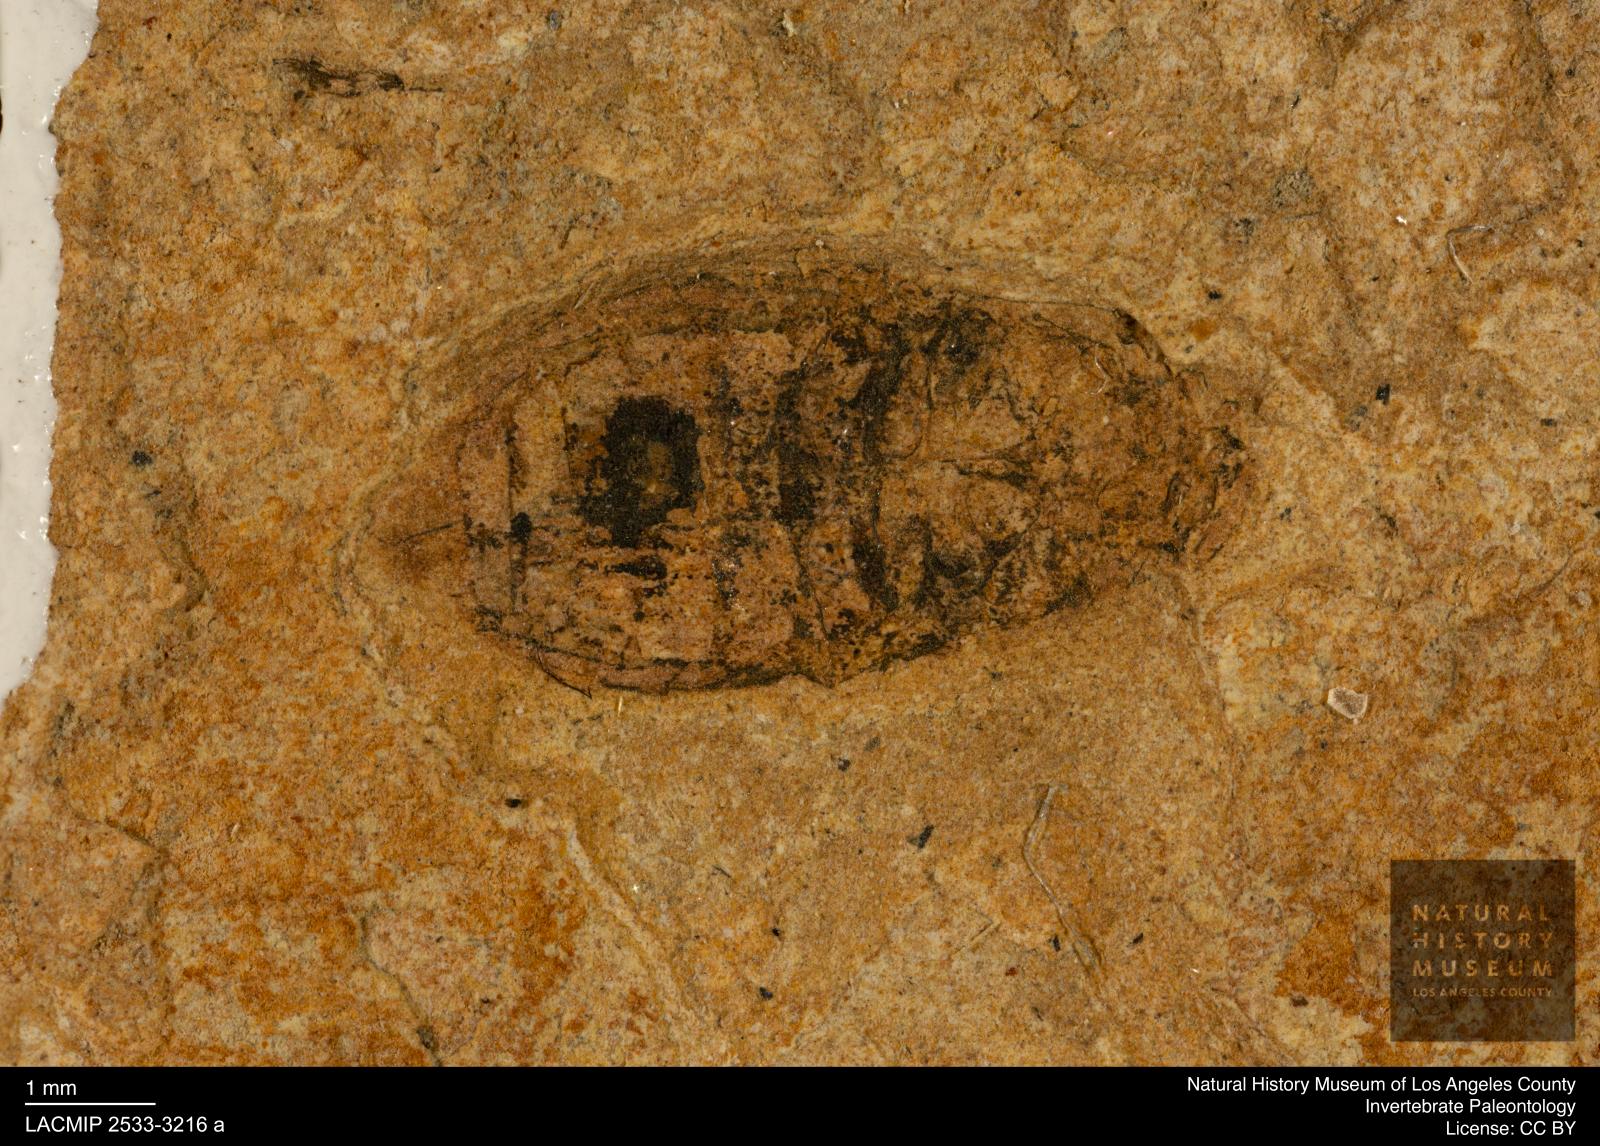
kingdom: Animalia
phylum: Arthropoda
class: Insecta
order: Coleoptera
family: Hydrophilidae
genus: Berosus
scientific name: Berosus morticinus
